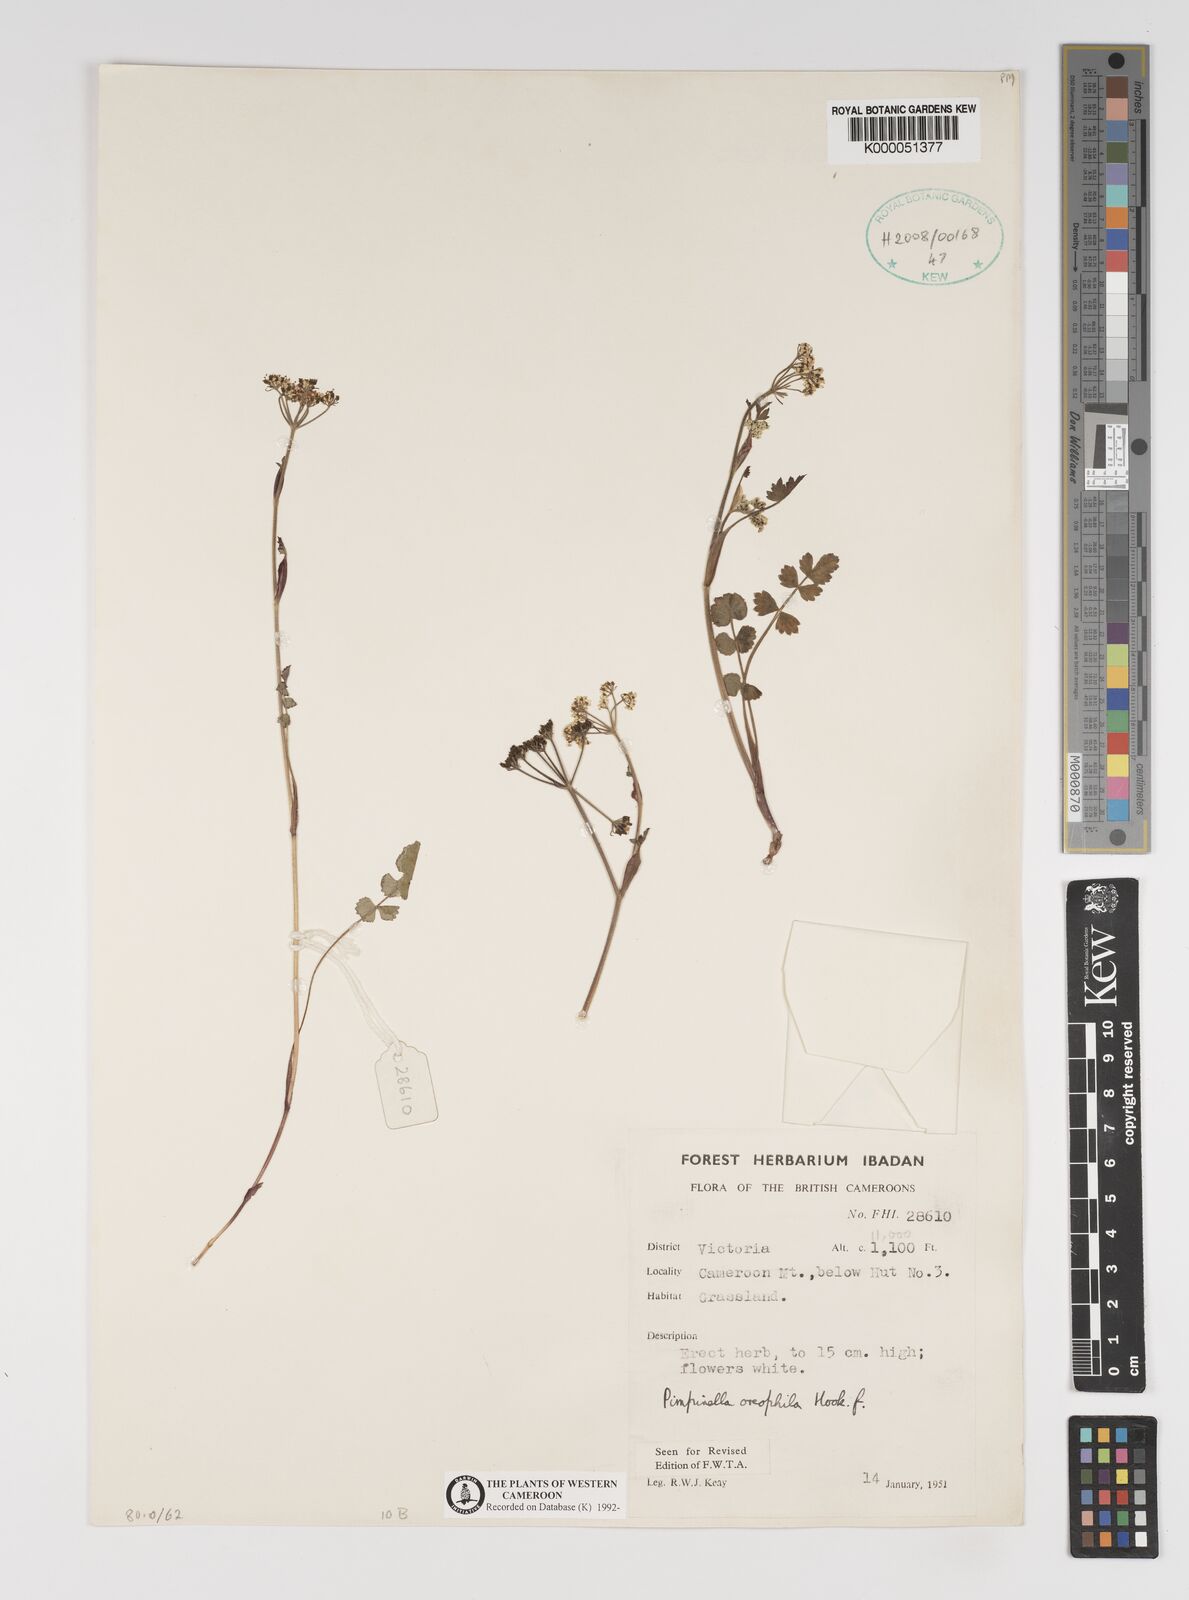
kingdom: Plantae
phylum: Tracheophyta
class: Magnoliopsida
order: Apiales
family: Apiaceae
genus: Pimpinella
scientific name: Pimpinella oreophila
